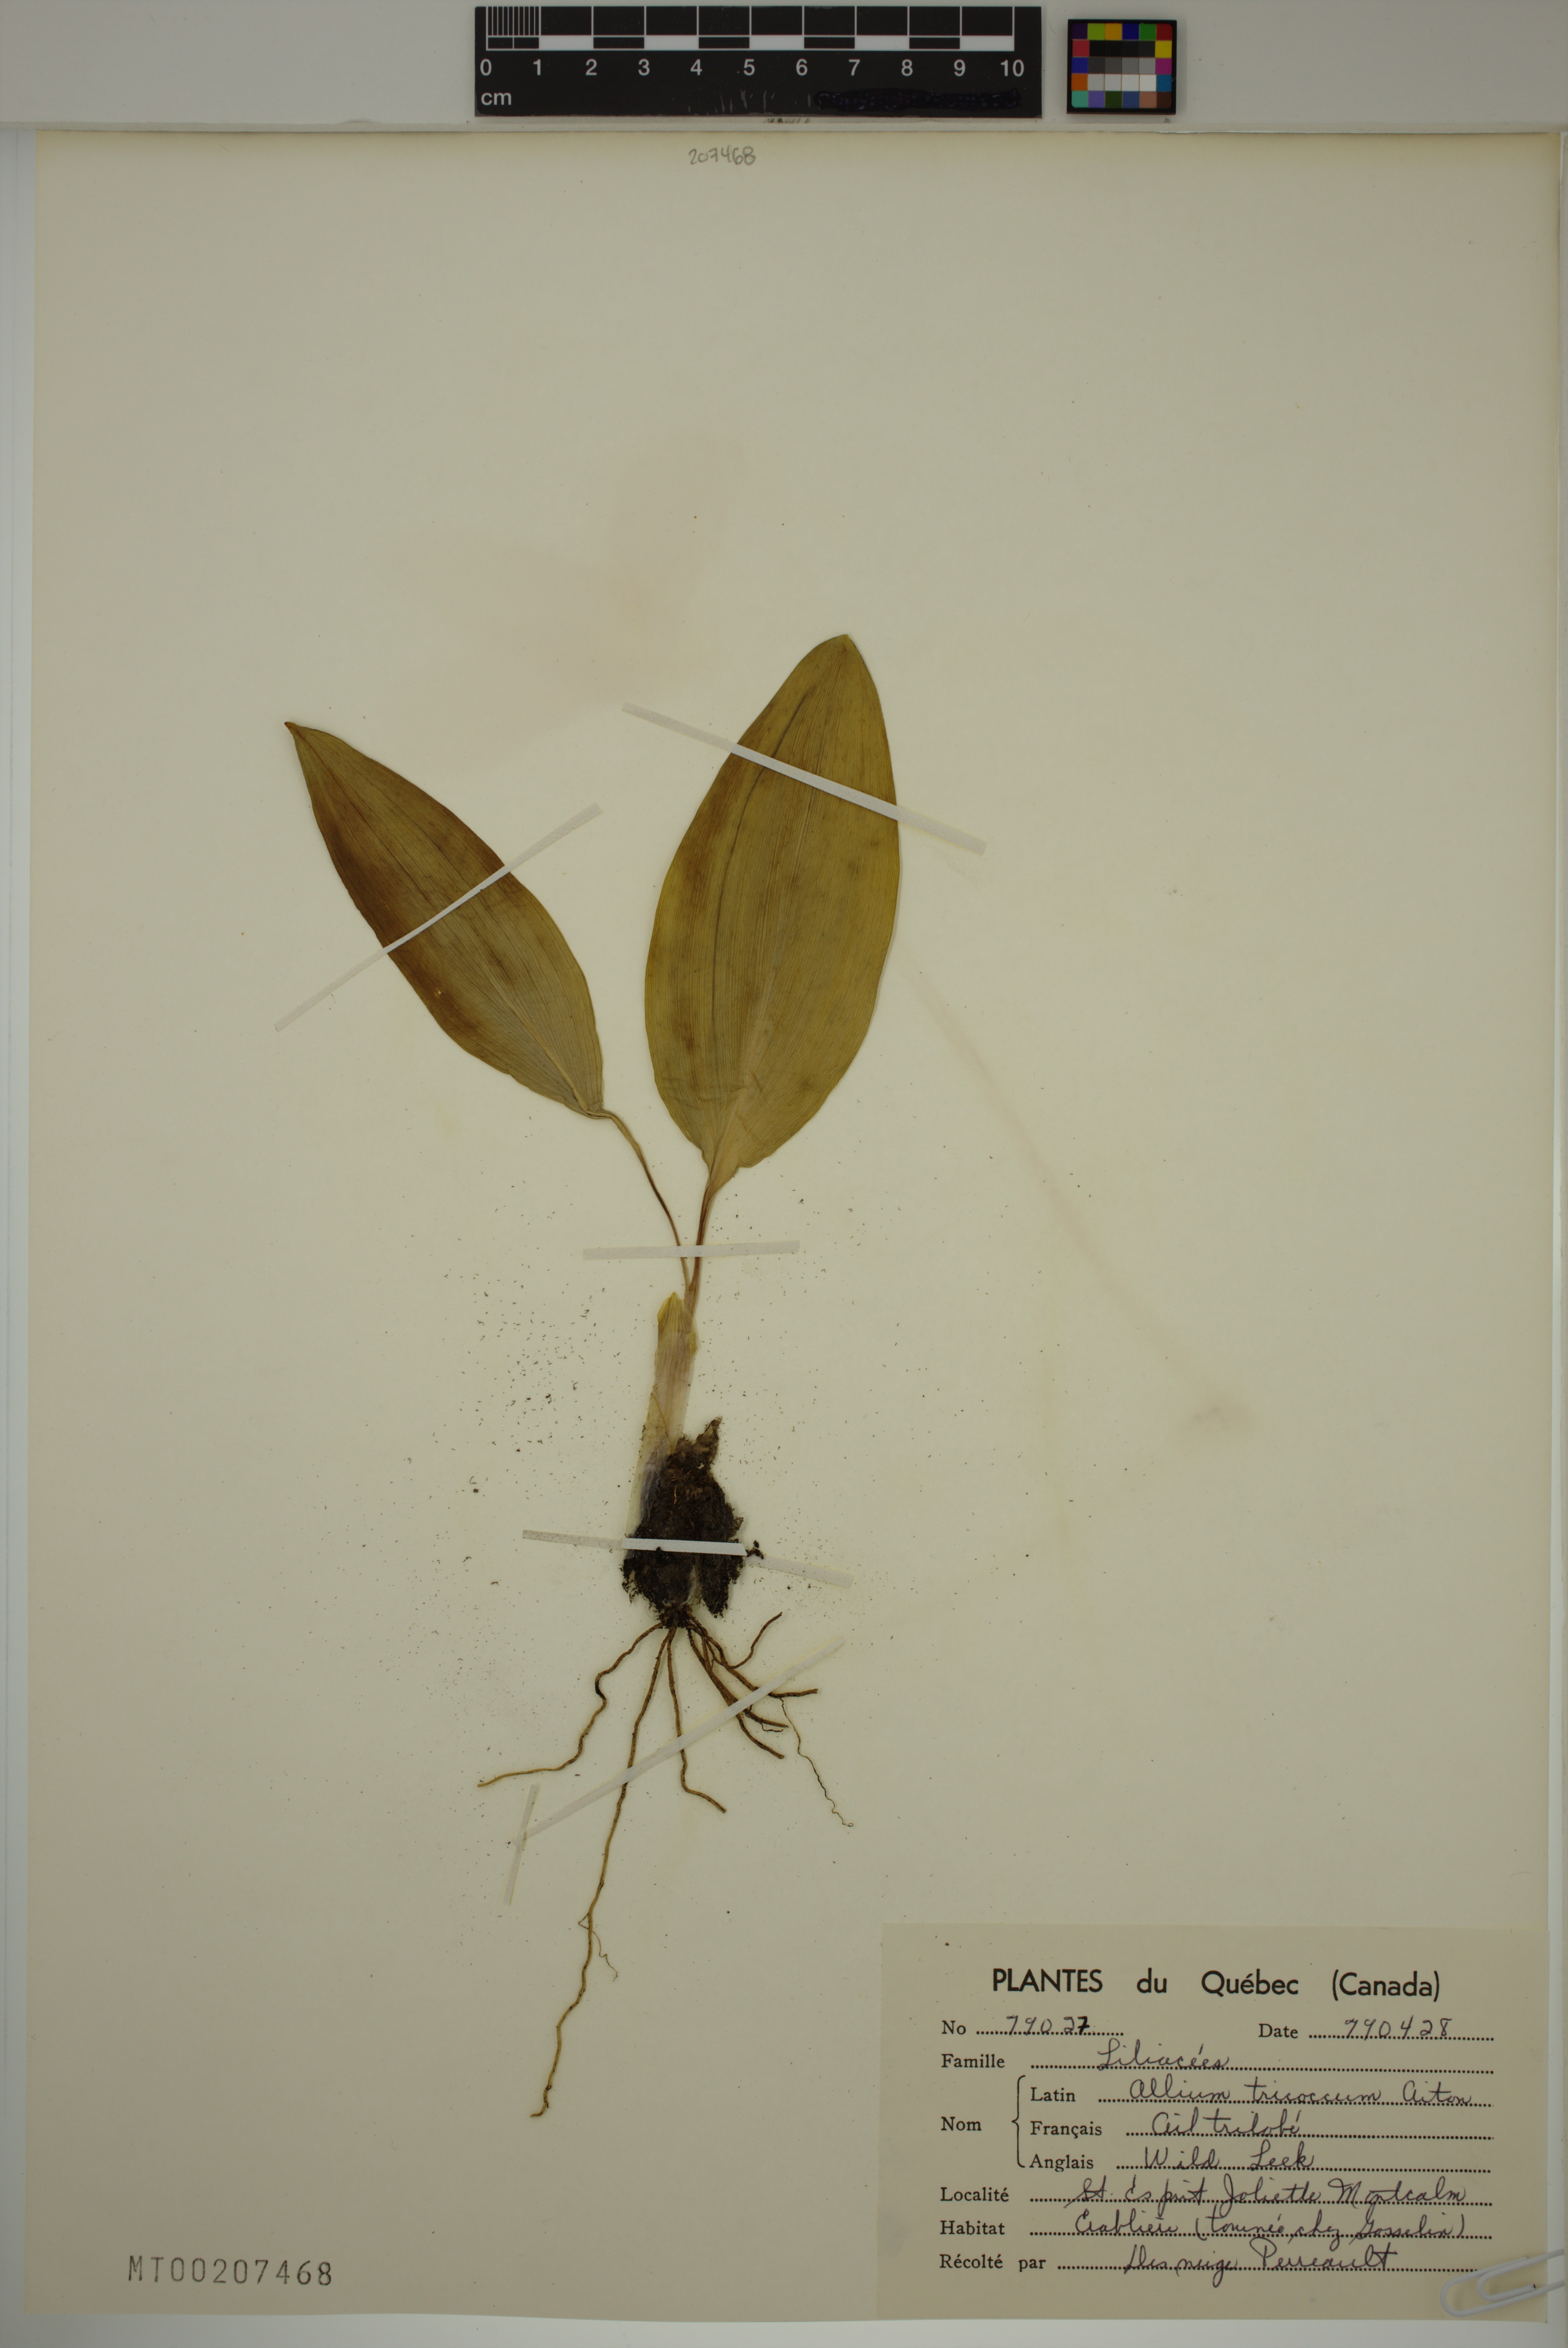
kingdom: Plantae
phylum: Tracheophyta
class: Liliopsida
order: Asparagales
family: Amaryllidaceae
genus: Allium
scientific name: Allium tricoccum
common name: Ramp
